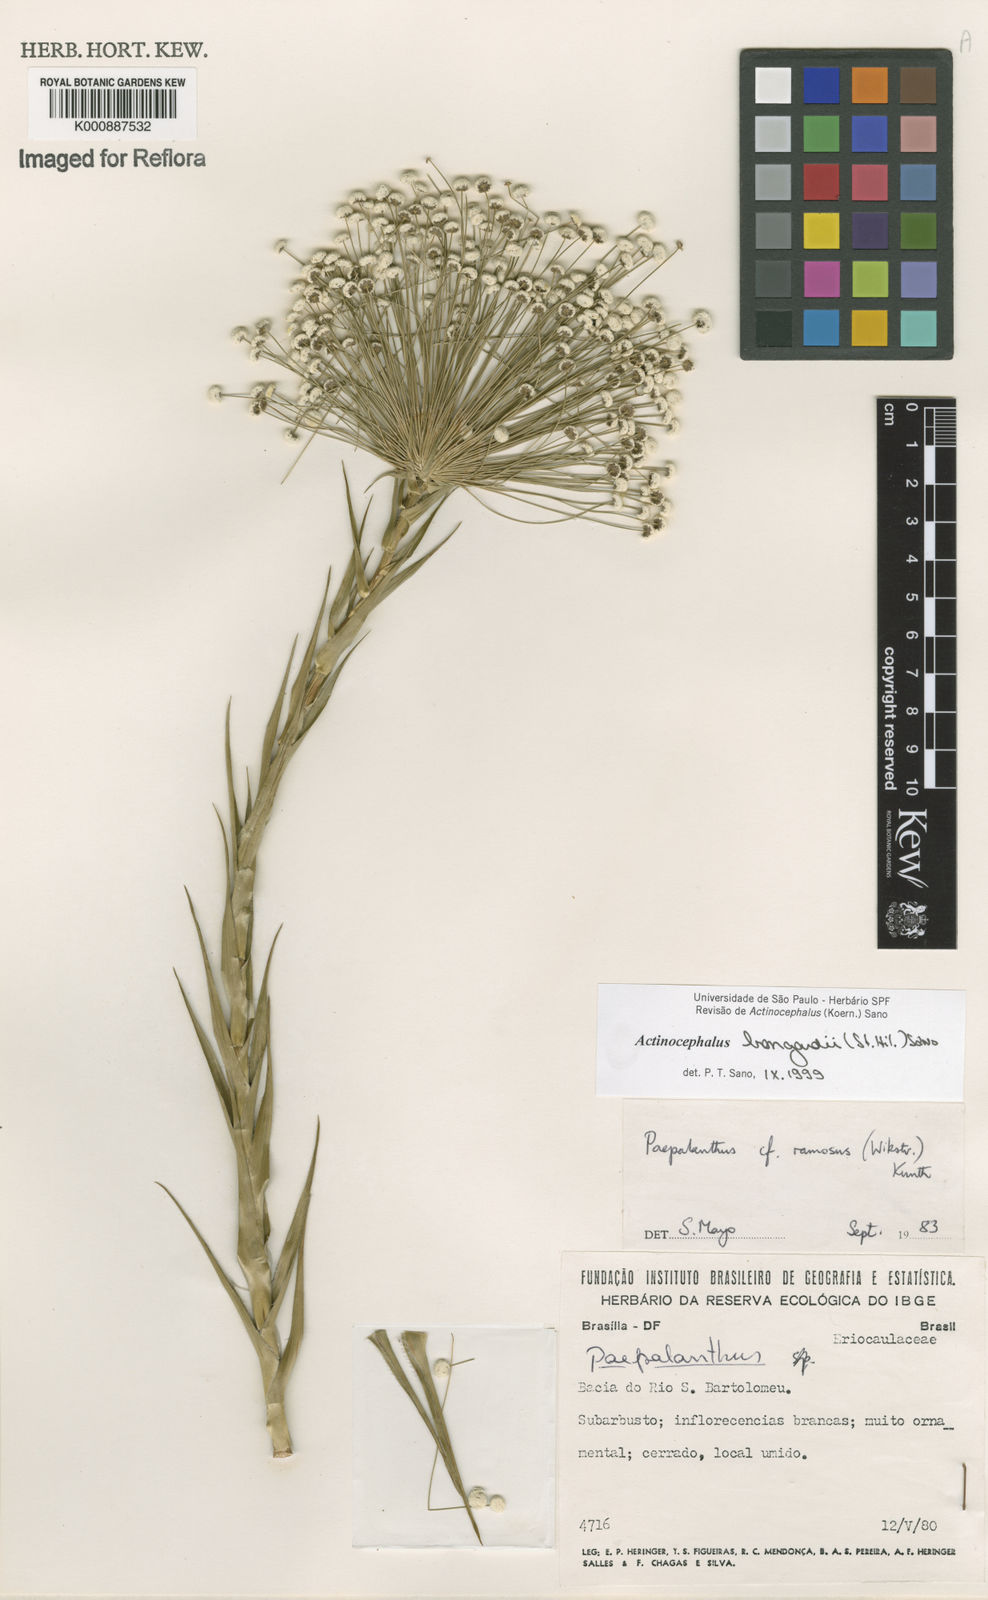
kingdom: Plantae
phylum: Tracheophyta
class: Liliopsida
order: Poales
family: Eriocaulaceae
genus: Paepalanthus
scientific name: Paepalanthus hilairei
